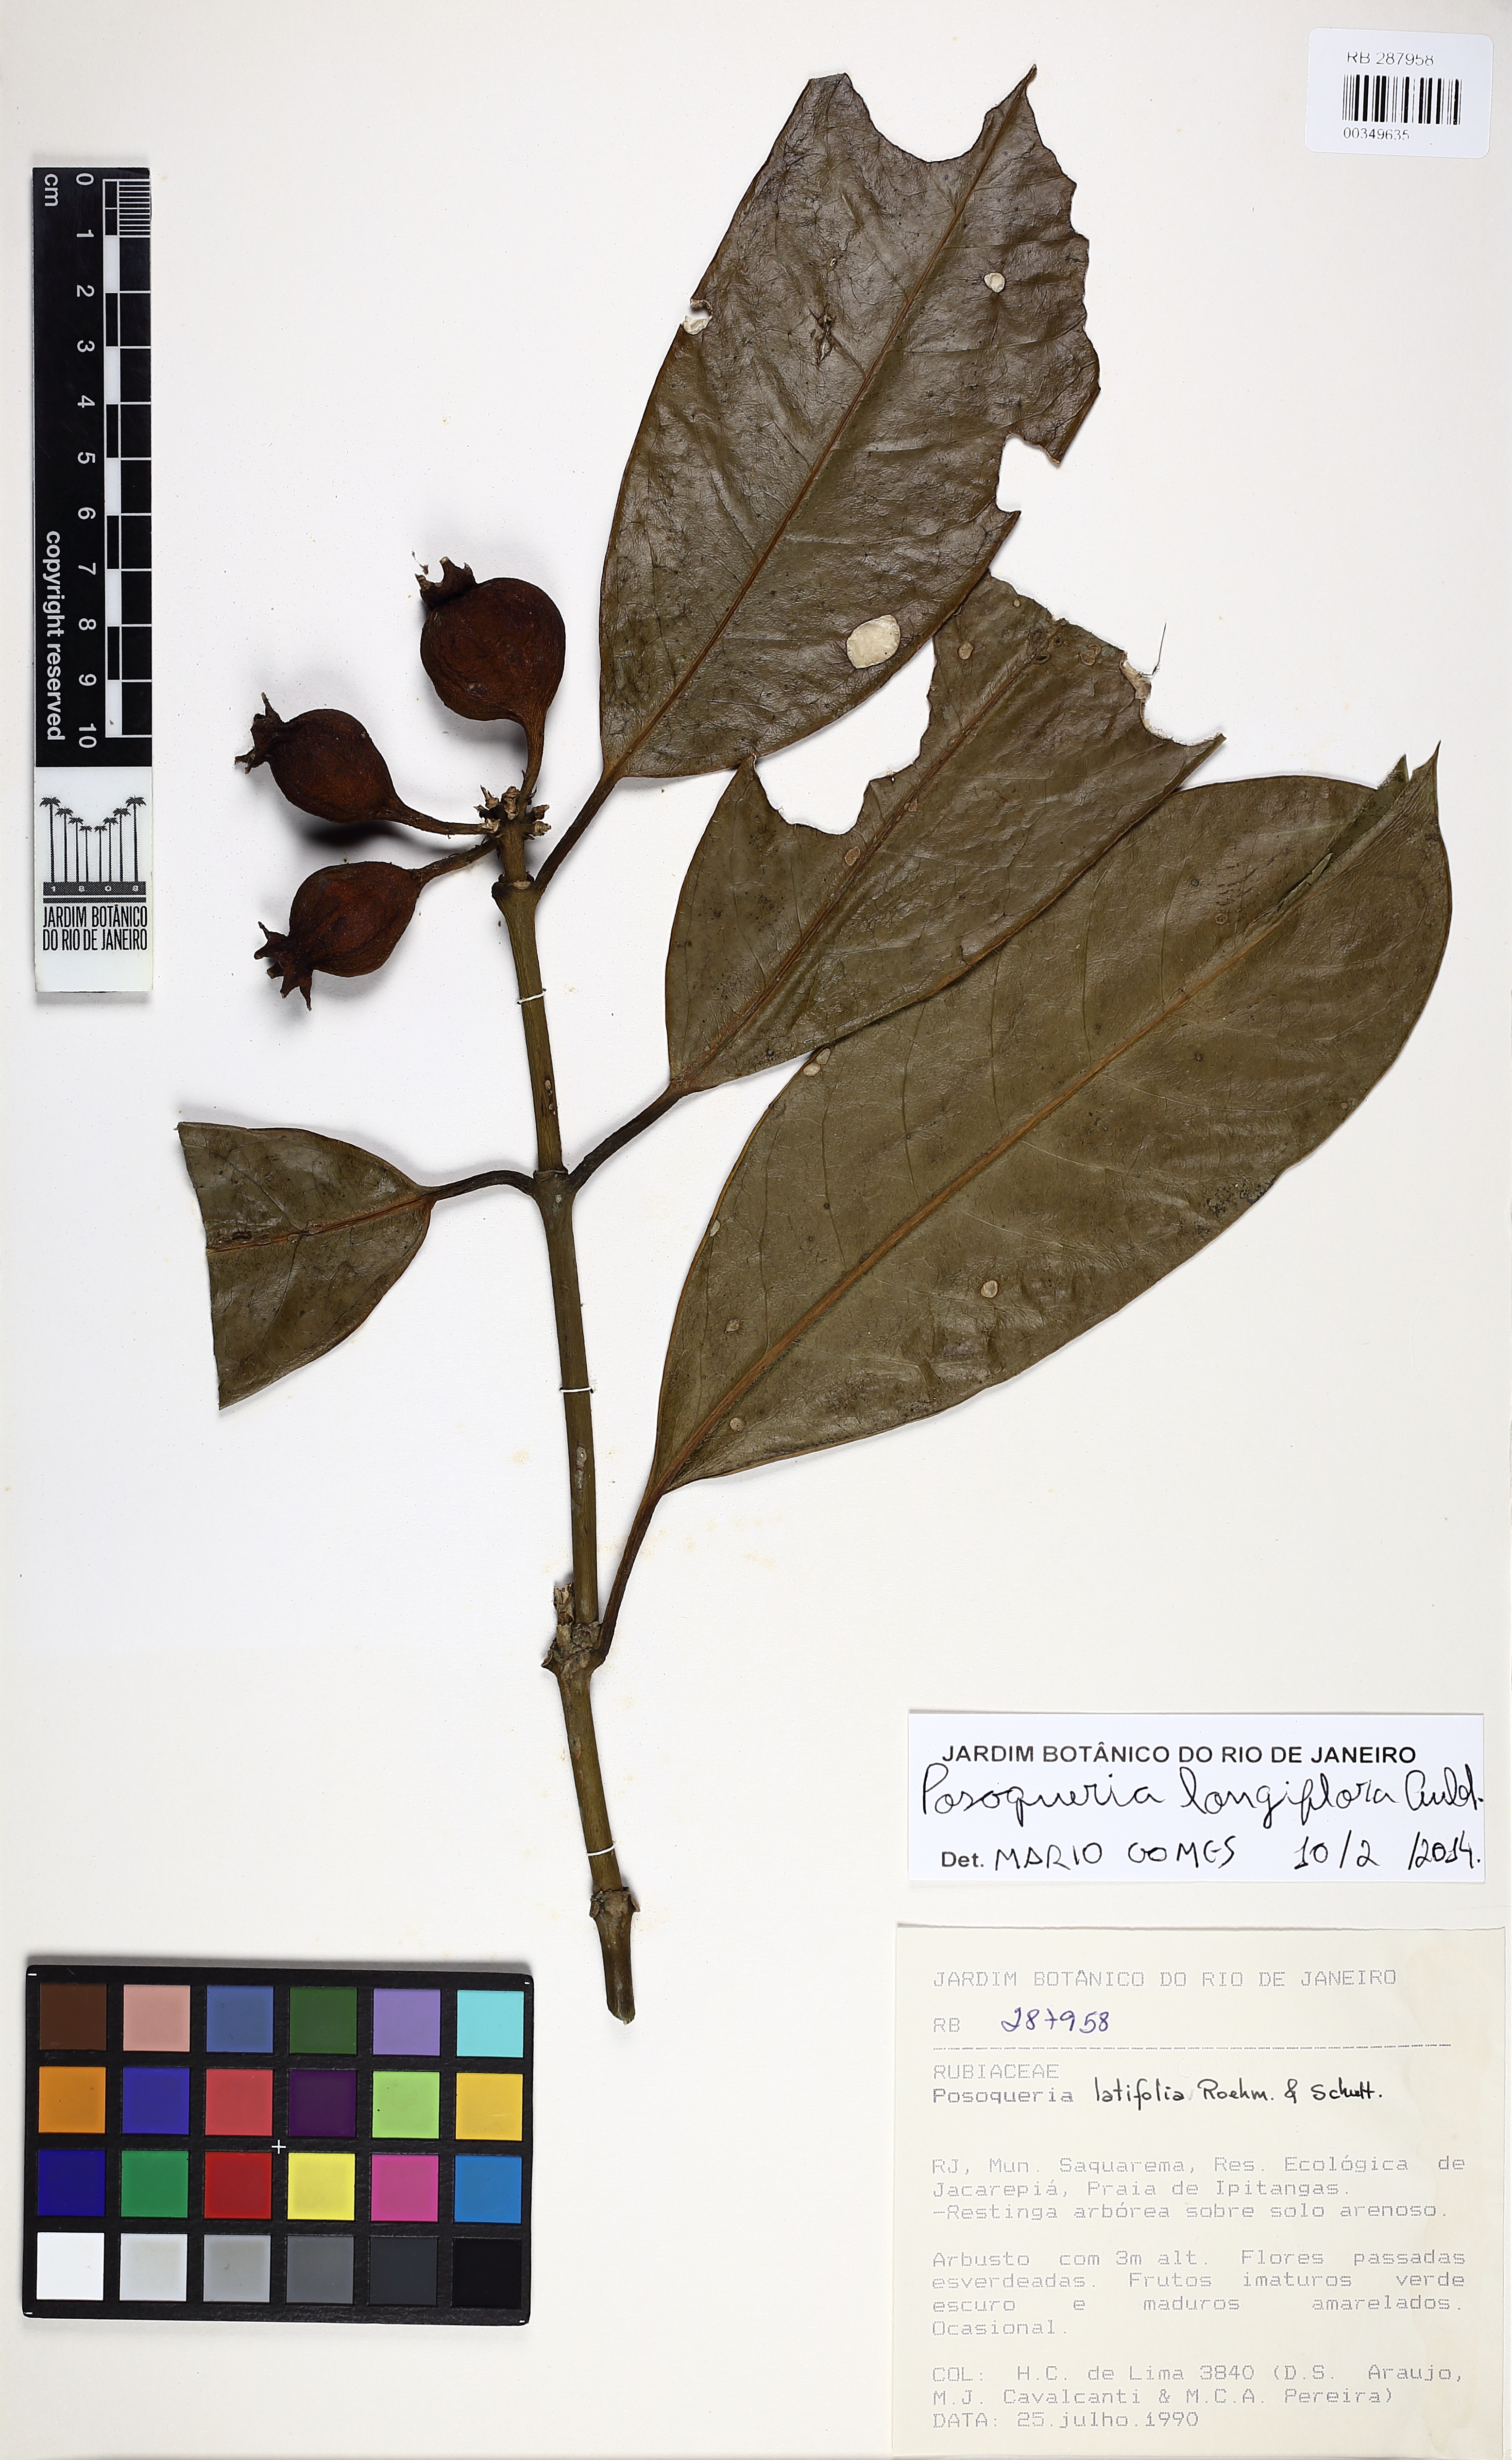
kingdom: Plantae
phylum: Tracheophyta
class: Magnoliopsida
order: Gentianales
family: Rubiaceae
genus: Posoqueria
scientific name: Posoqueria longiflora
